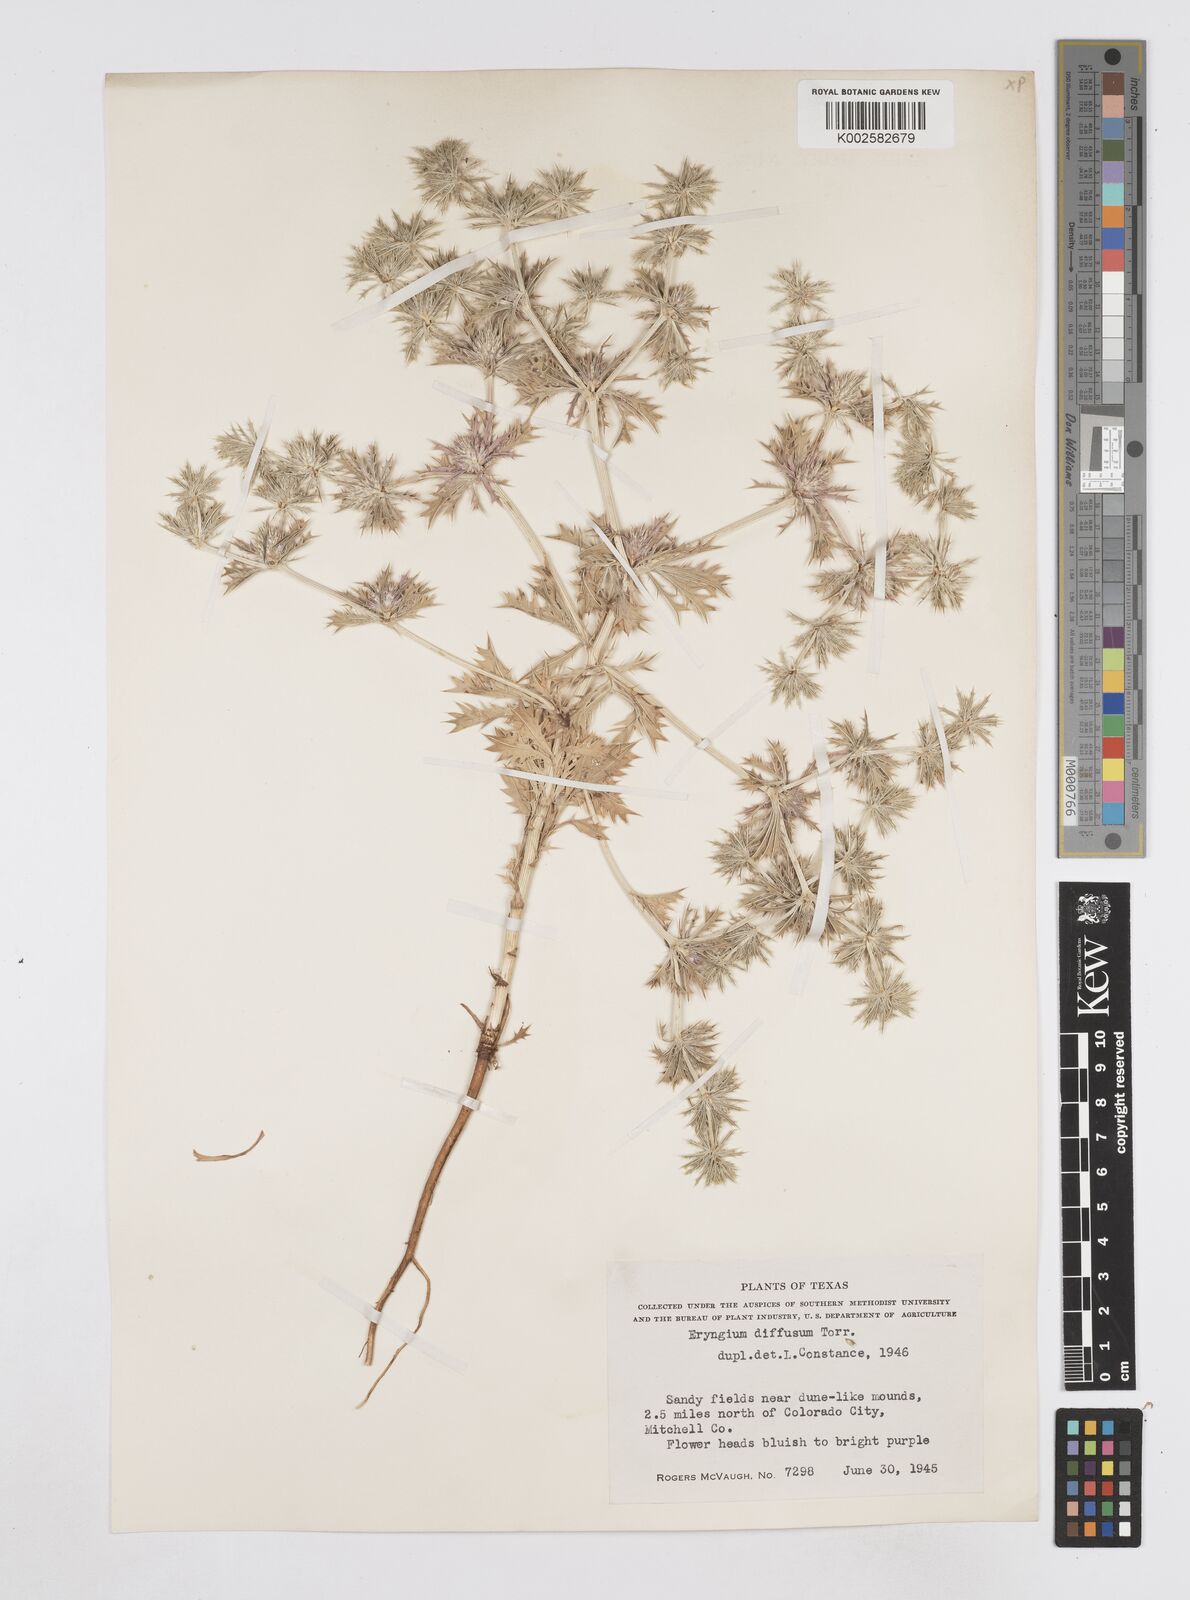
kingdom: Plantae
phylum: Tracheophyta
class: Magnoliopsida
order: Apiales
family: Apiaceae
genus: Eryngium
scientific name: Eryngium diffusum
